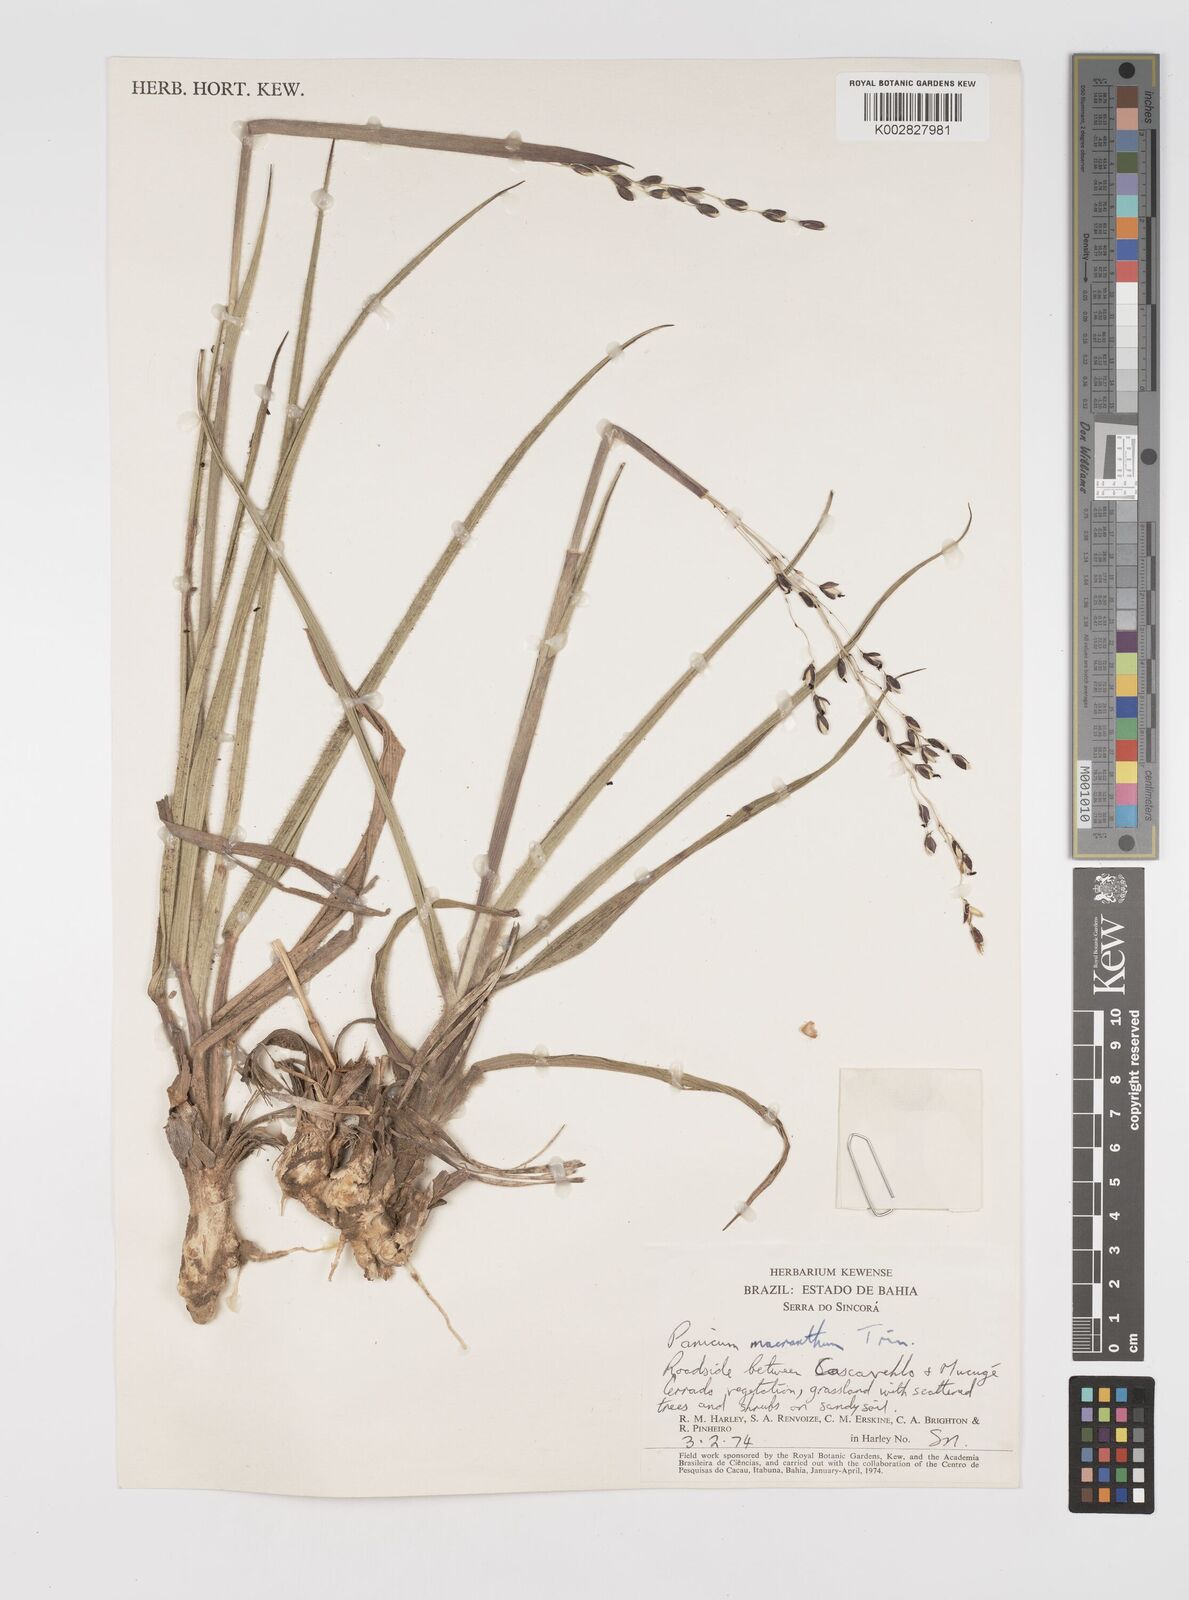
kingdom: Plantae
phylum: Tracheophyta
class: Liliopsida
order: Poales
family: Poaceae
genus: Oncorachis
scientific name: Oncorachis ramosa
